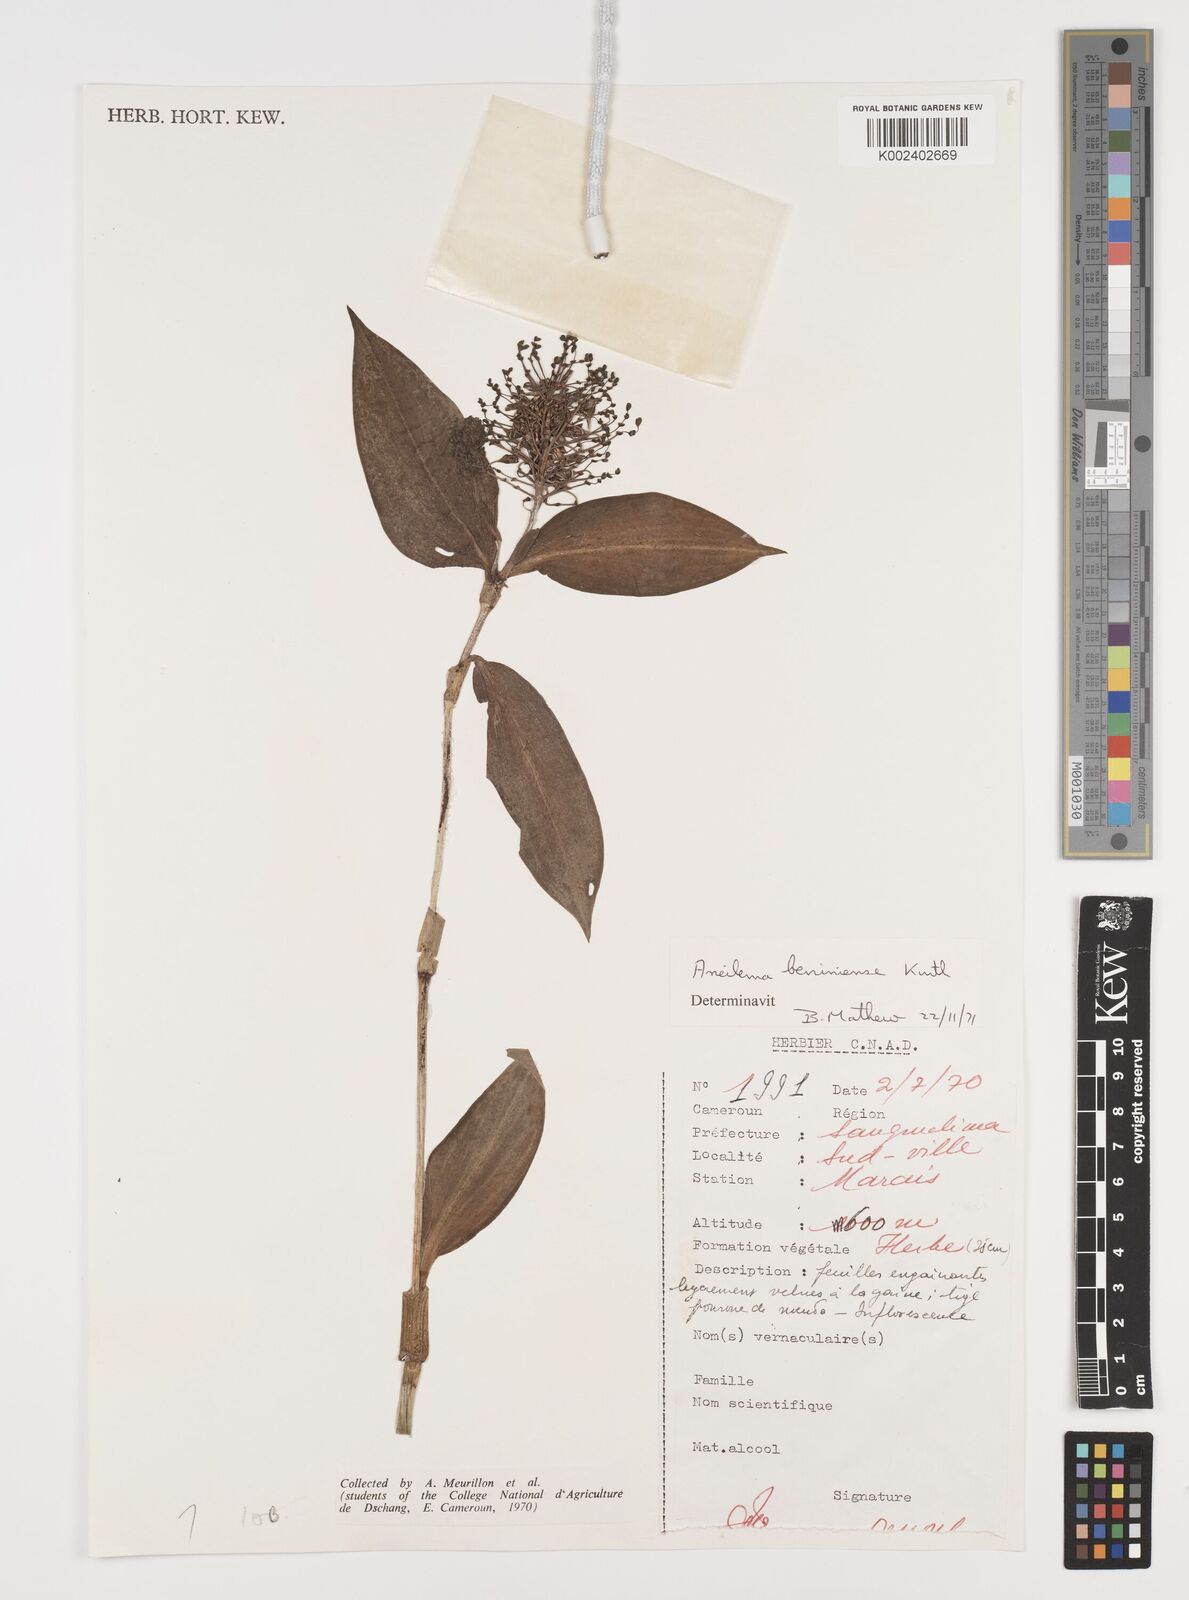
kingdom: Plantae
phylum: Tracheophyta
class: Liliopsida
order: Commelinales
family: Commelinaceae
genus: Aneilema
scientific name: Aneilema beniniense
